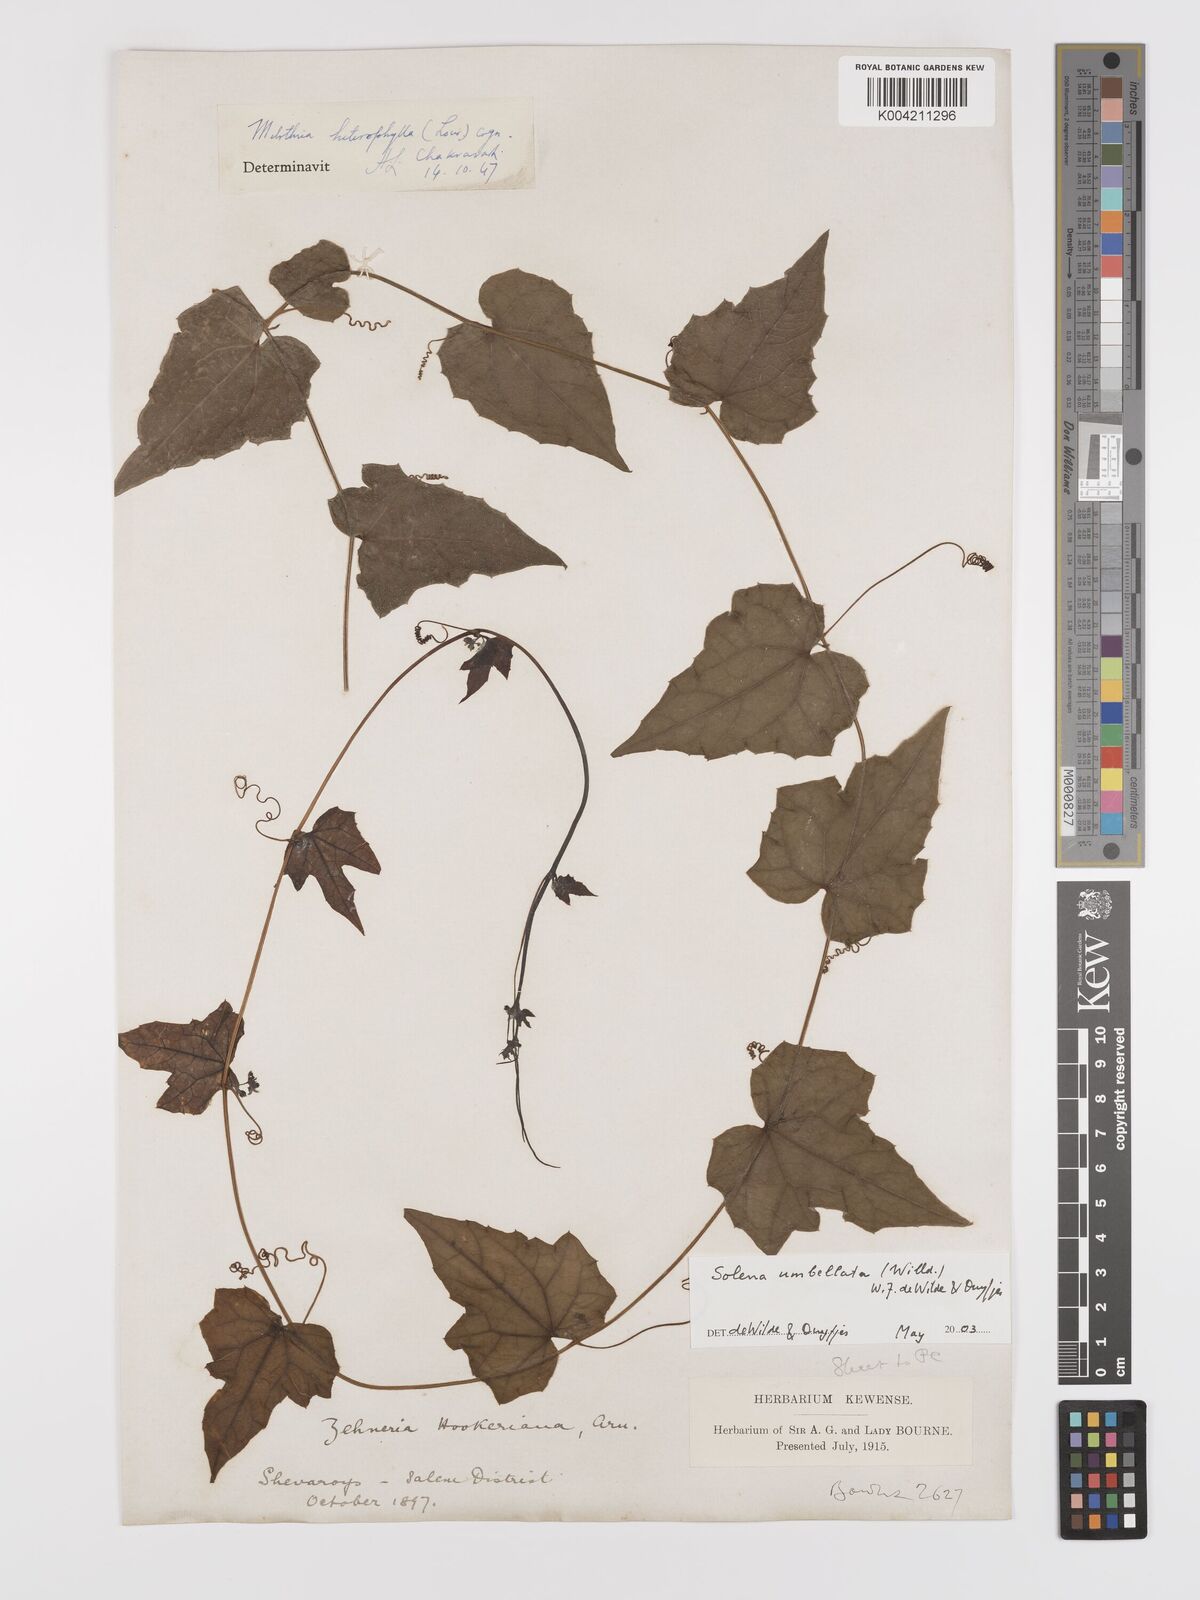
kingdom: Plantae
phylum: Tracheophyta
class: Magnoliopsida
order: Cucurbitales
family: Cucurbitaceae
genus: Solena
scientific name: Solena amplexicaulis
